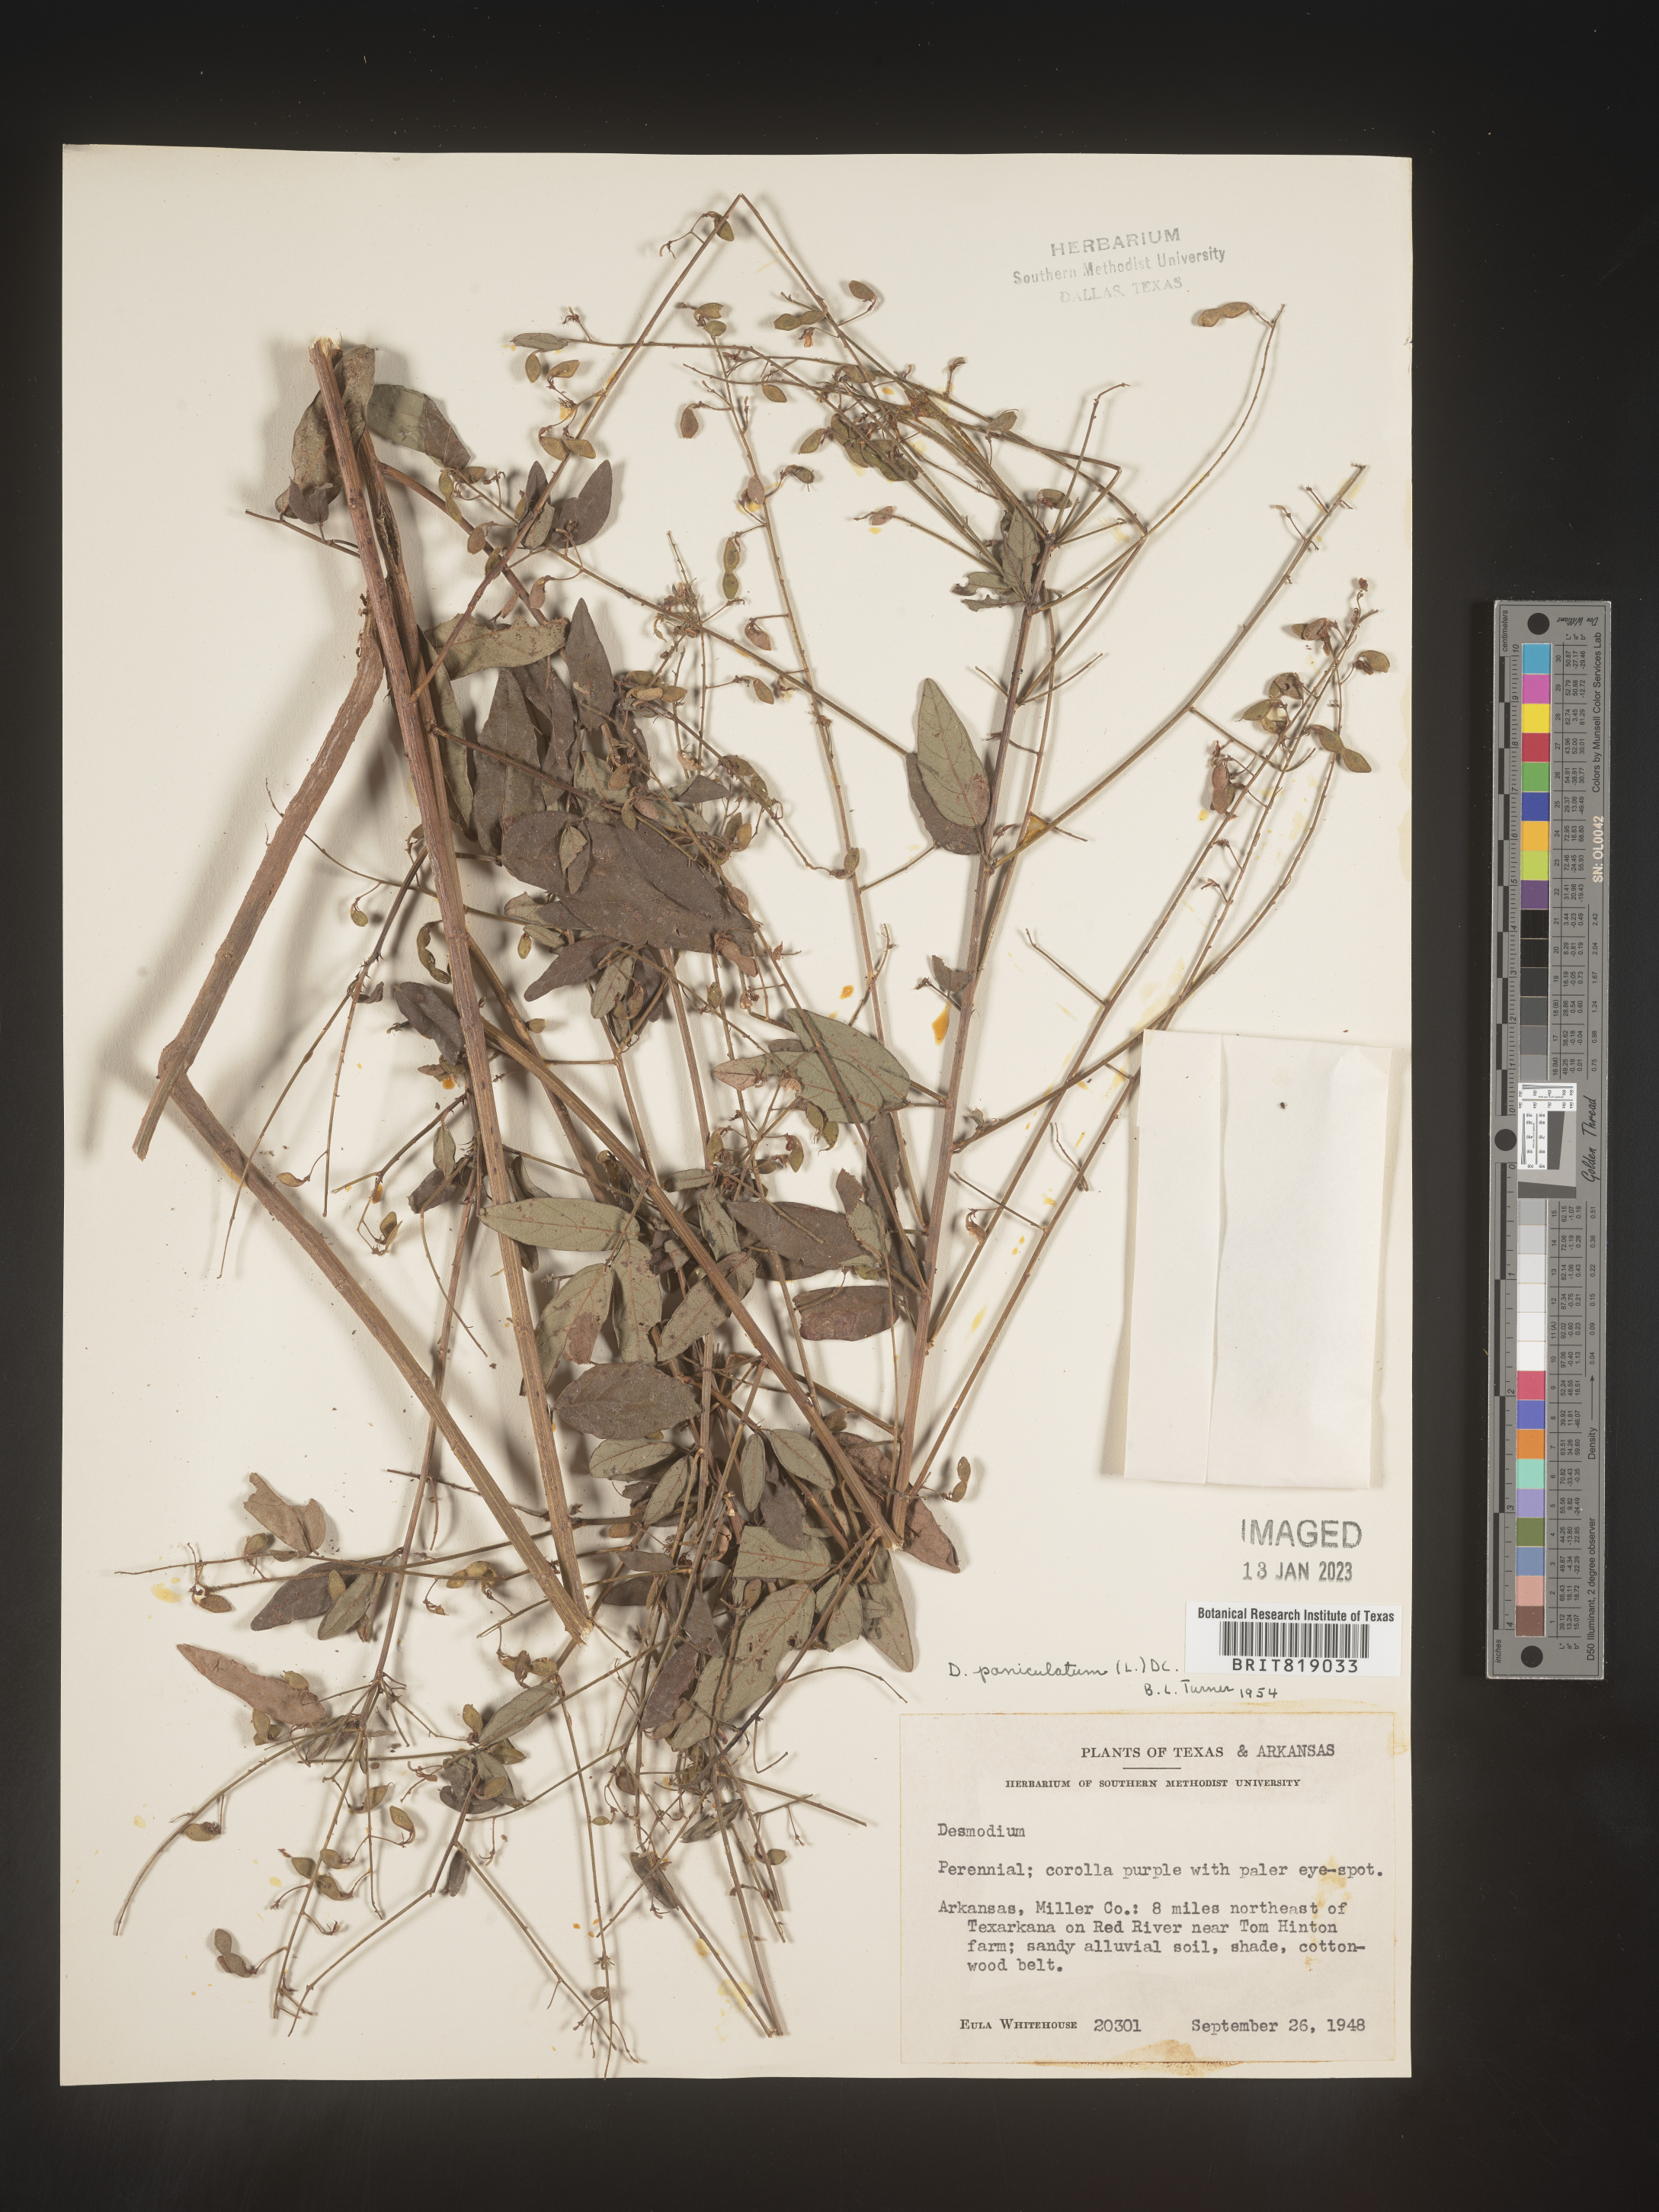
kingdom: Plantae
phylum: Tracheophyta
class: Magnoliopsida
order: Fabales
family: Fabaceae
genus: Desmodium
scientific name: Desmodium paniculatum
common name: Panicled tick-clover
